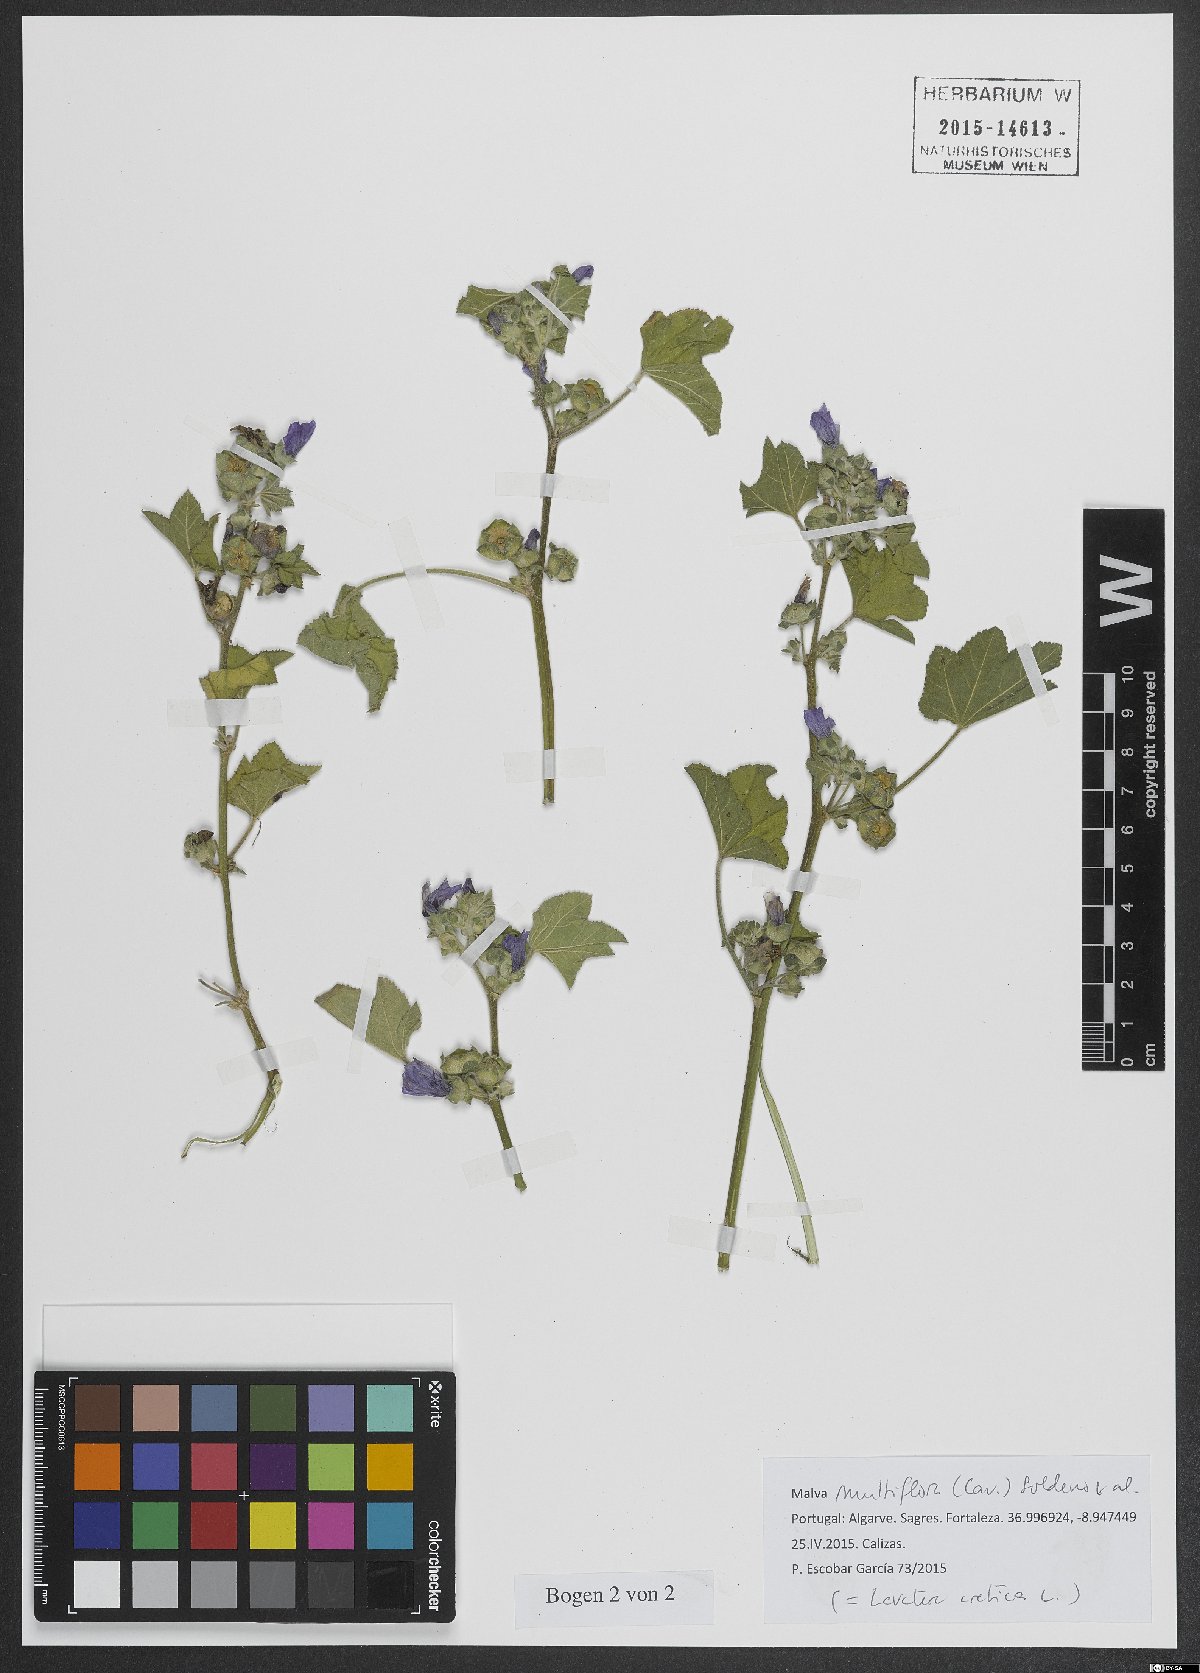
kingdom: Plantae
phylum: Tracheophyta
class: Magnoliopsida
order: Malvales
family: Malvaceae
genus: Malva
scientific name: Malva multiflora
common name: Cheeseweed
